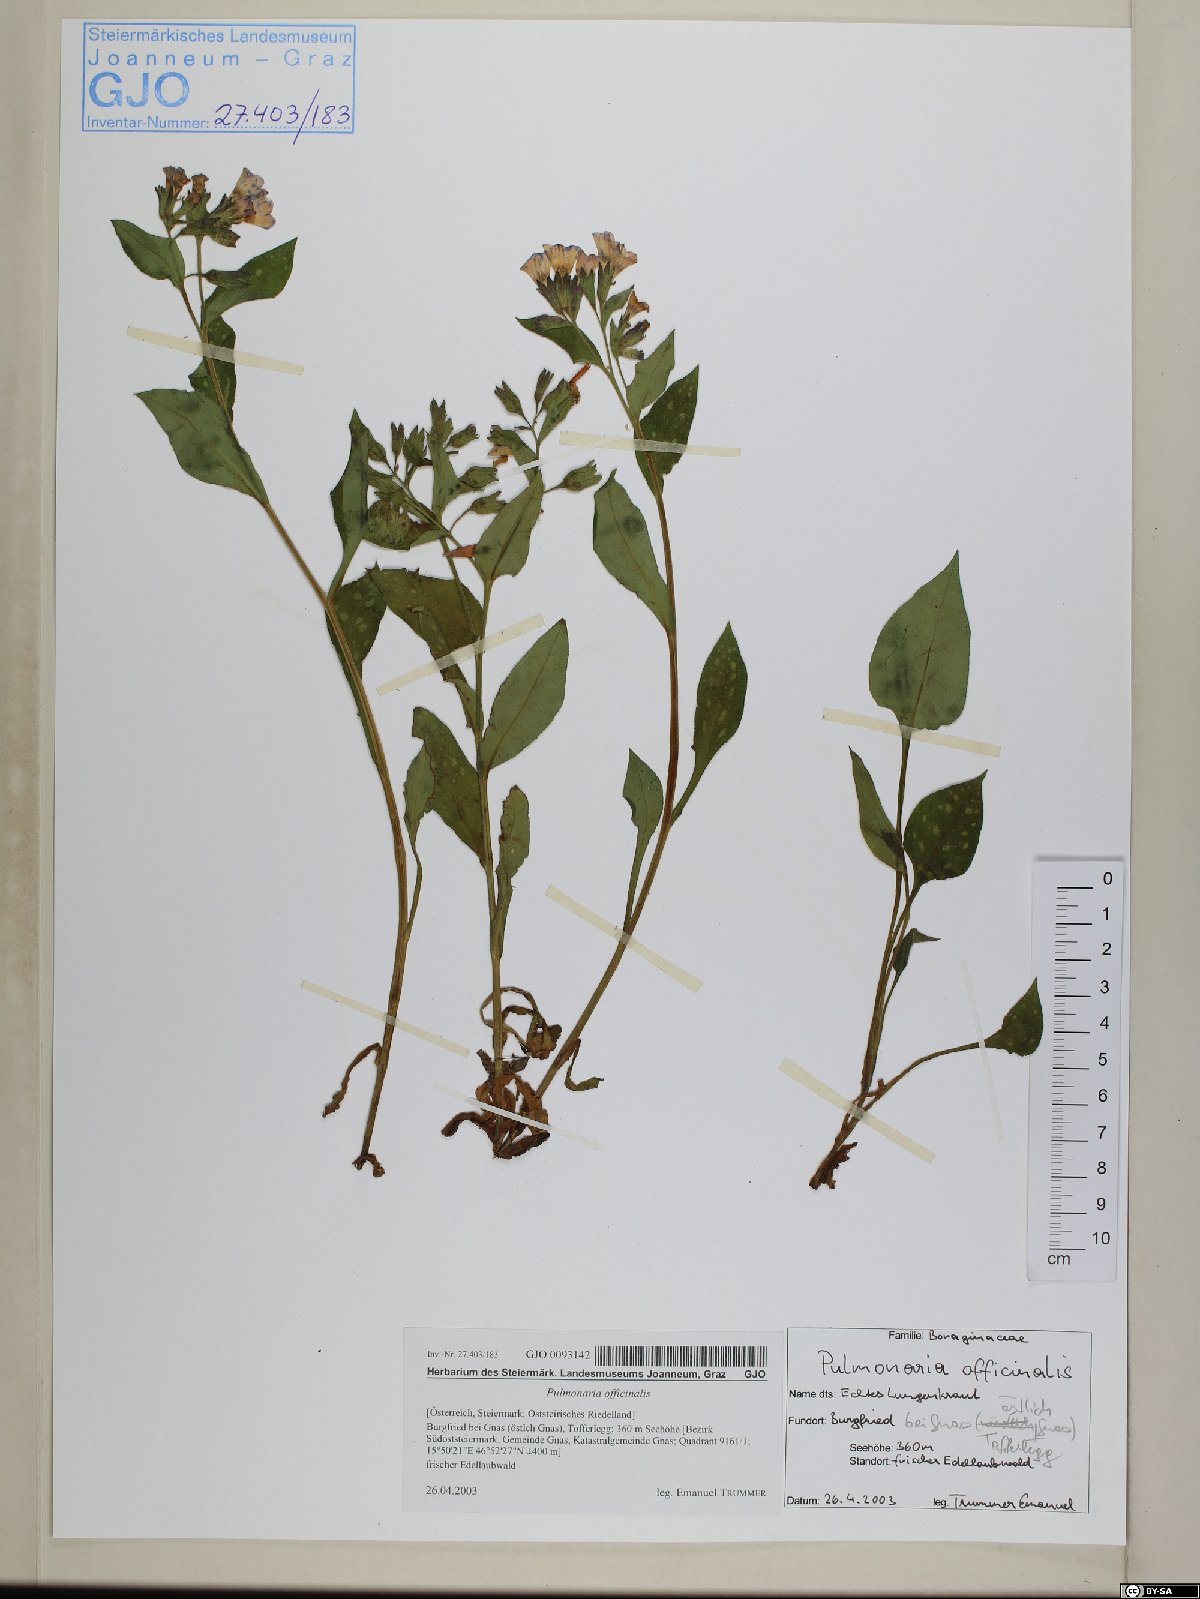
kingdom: Plantae
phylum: Tracheophyta
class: Magnoliopsida
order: Boraginales
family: Boraginaceae
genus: Pulmonaria
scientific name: Pulmonaria officinalis
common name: Lungwort
